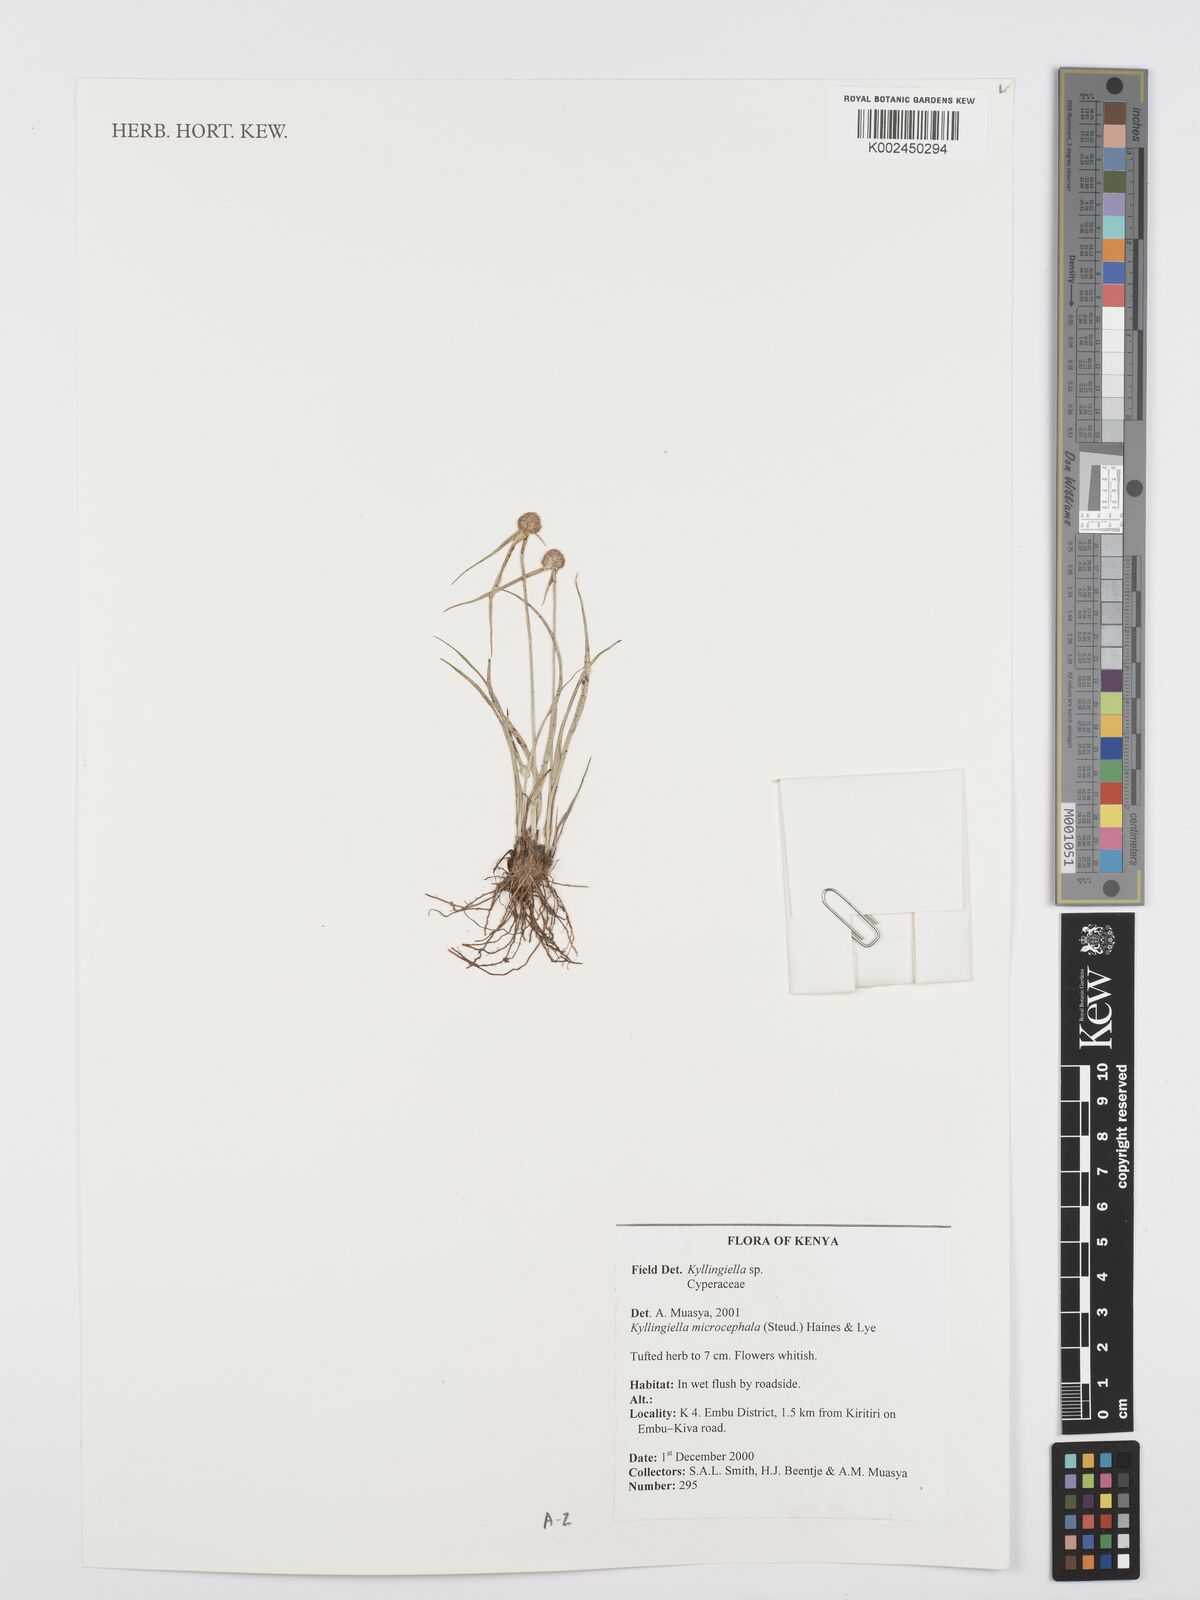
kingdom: Plantae
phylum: Tracheophyta
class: Liliopsida
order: Poales
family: Cyperaceae
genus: Cyperus
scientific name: Cyperus
